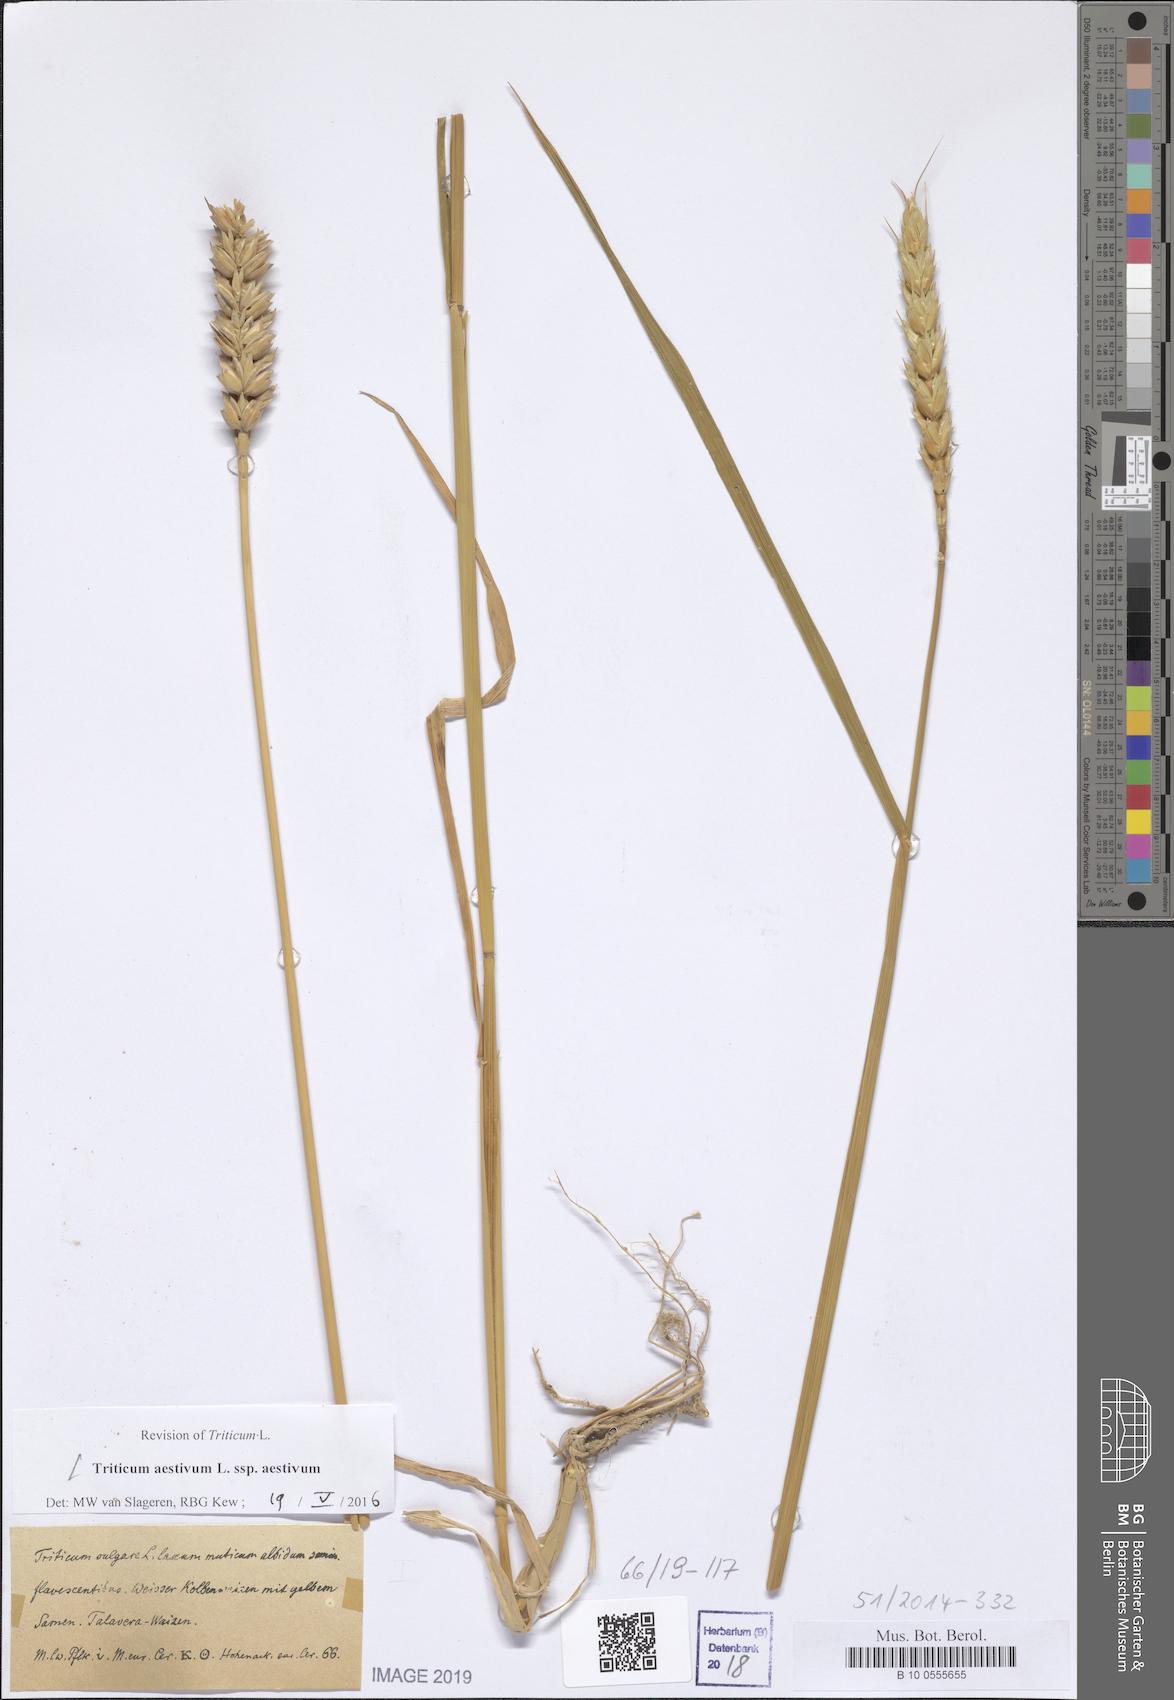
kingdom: Plantae
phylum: Tracheophyta
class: Liliopsida
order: Poales
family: Poaceae
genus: Triticum
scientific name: Triticum aestivum
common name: Common wheat
